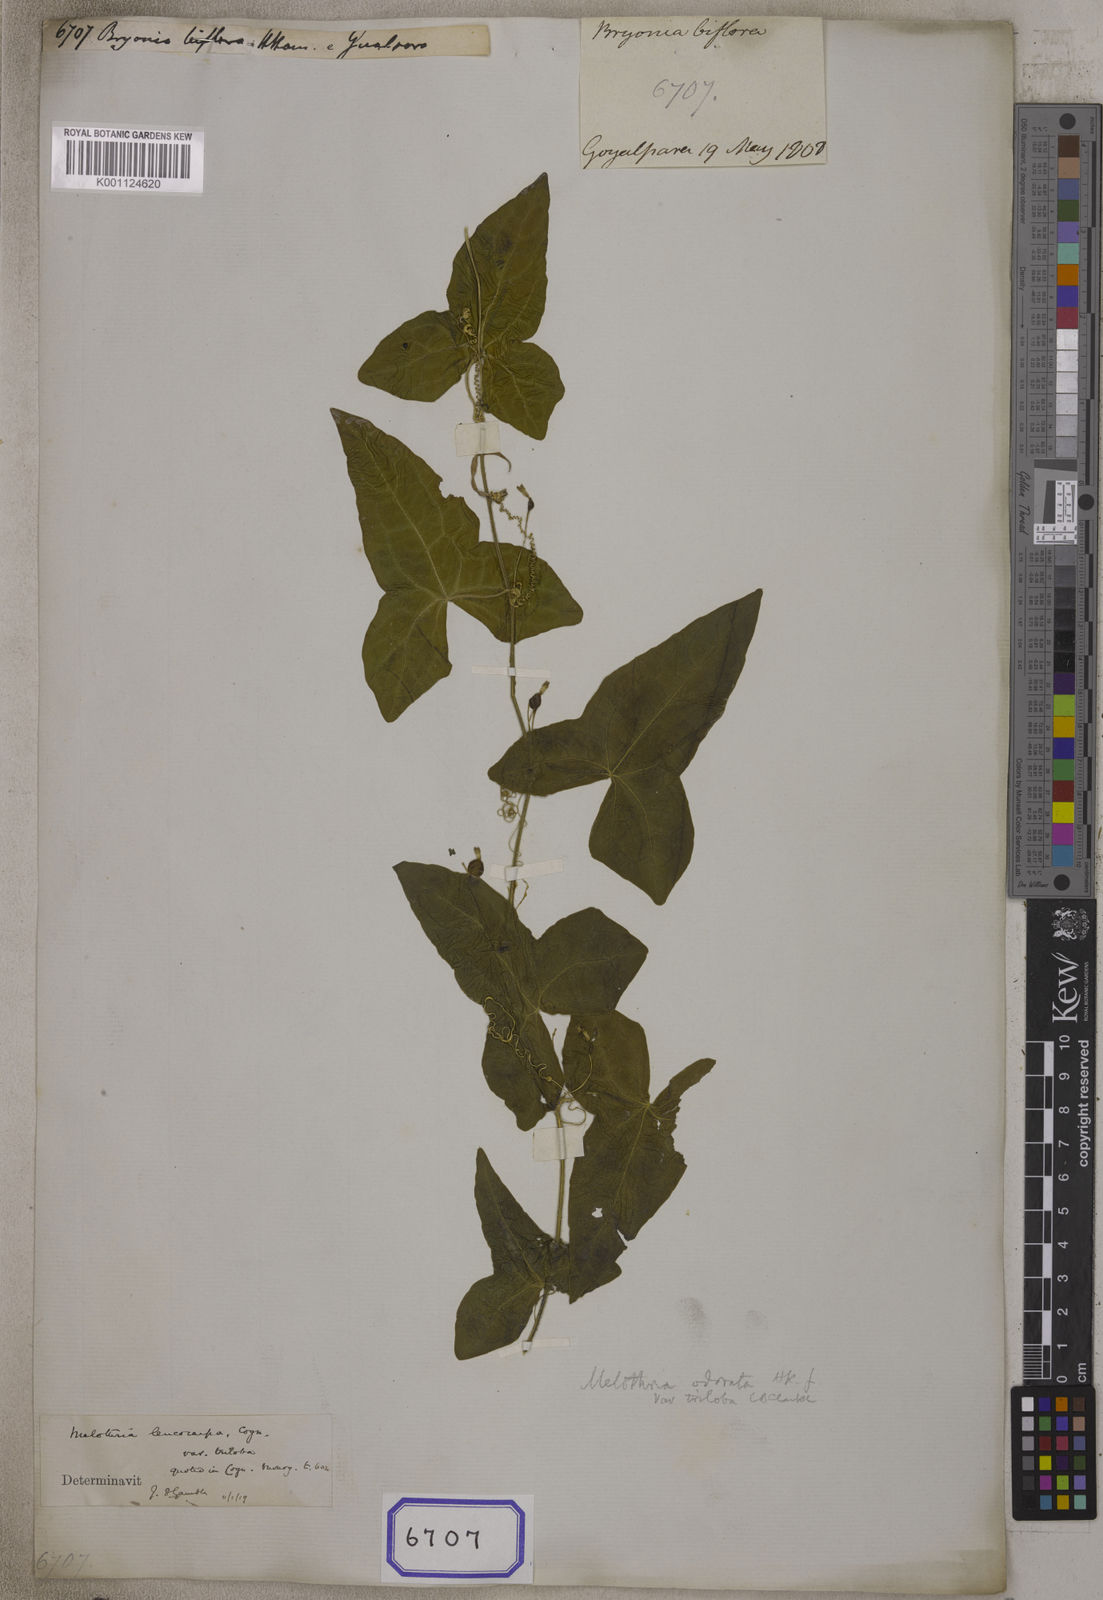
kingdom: Plantae
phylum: Tracheophyta
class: Magnoliopsida
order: Cucurbitales
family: Cucurbitaceae
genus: Bryonia
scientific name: Bryonia
